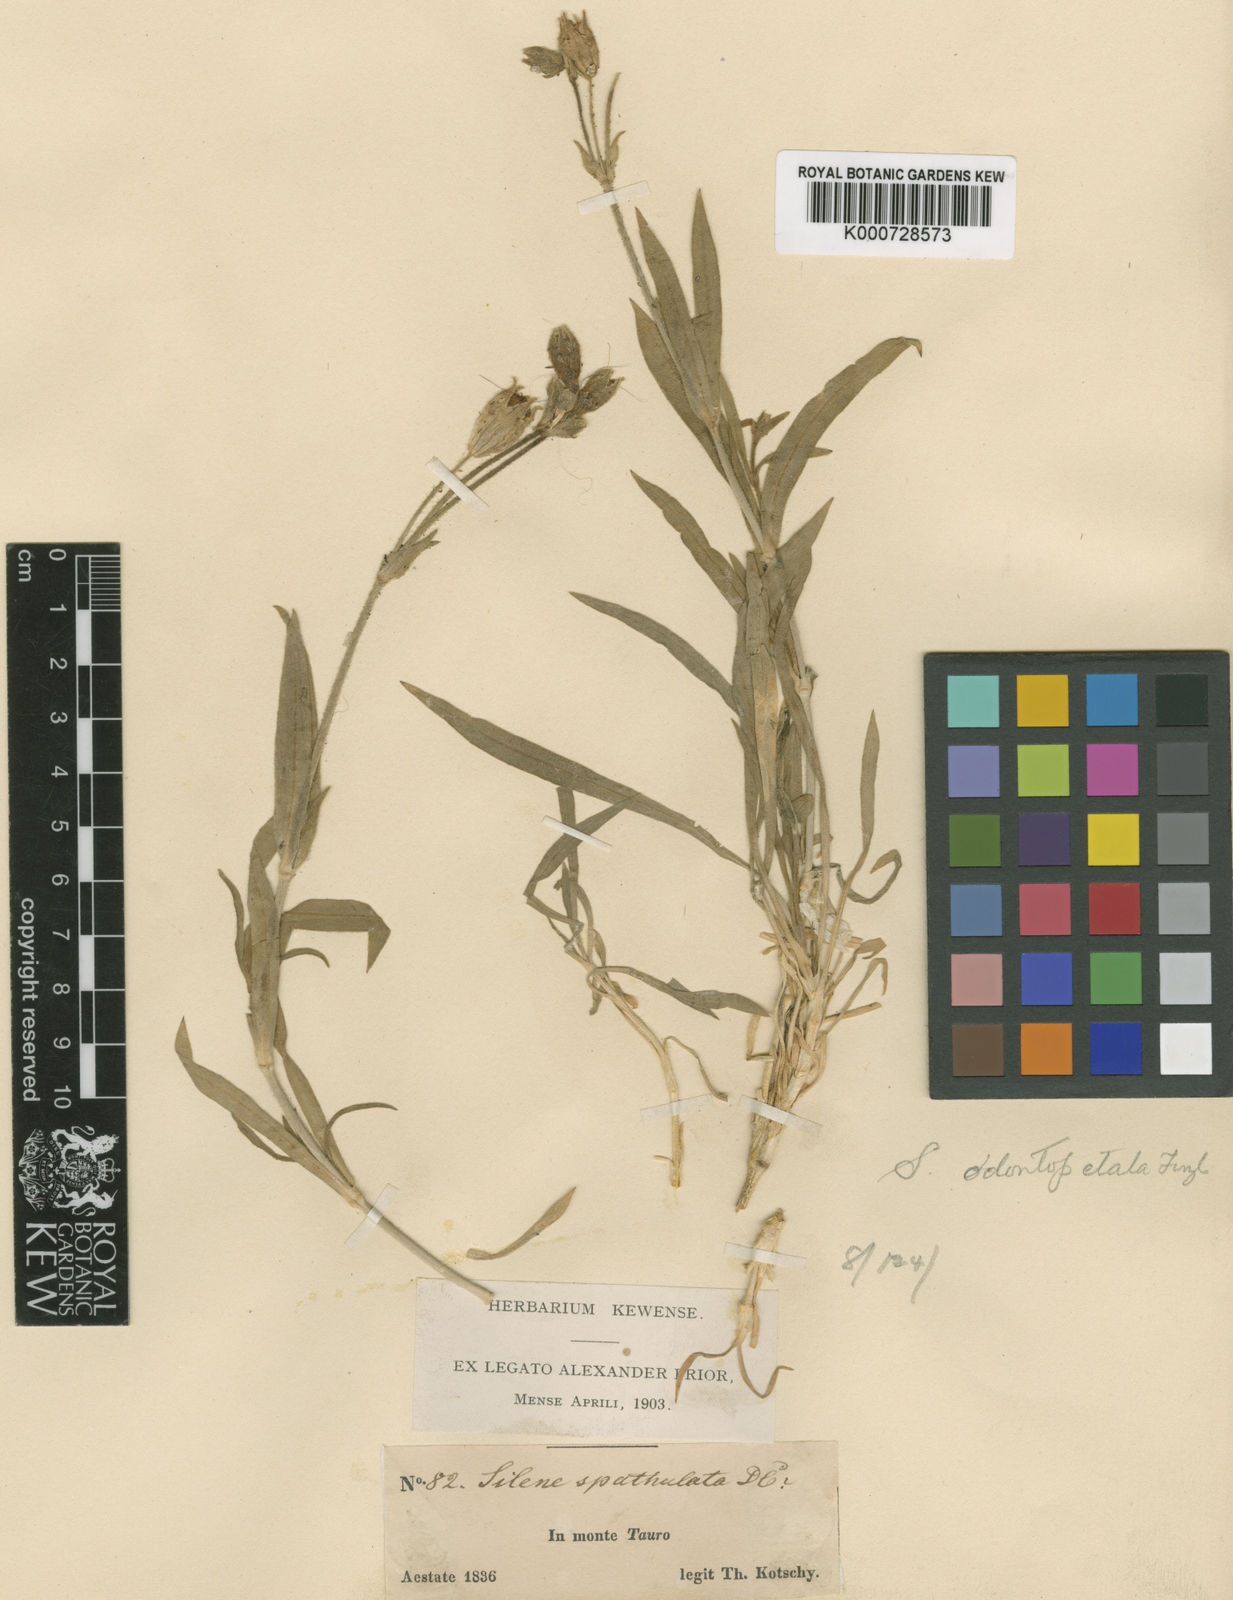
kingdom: Plantae
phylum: Tracheophyta
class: Magnoliopsida
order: Caryophyllales
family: Caryophyllaceae
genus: Silene
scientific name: Silene odontopetala
